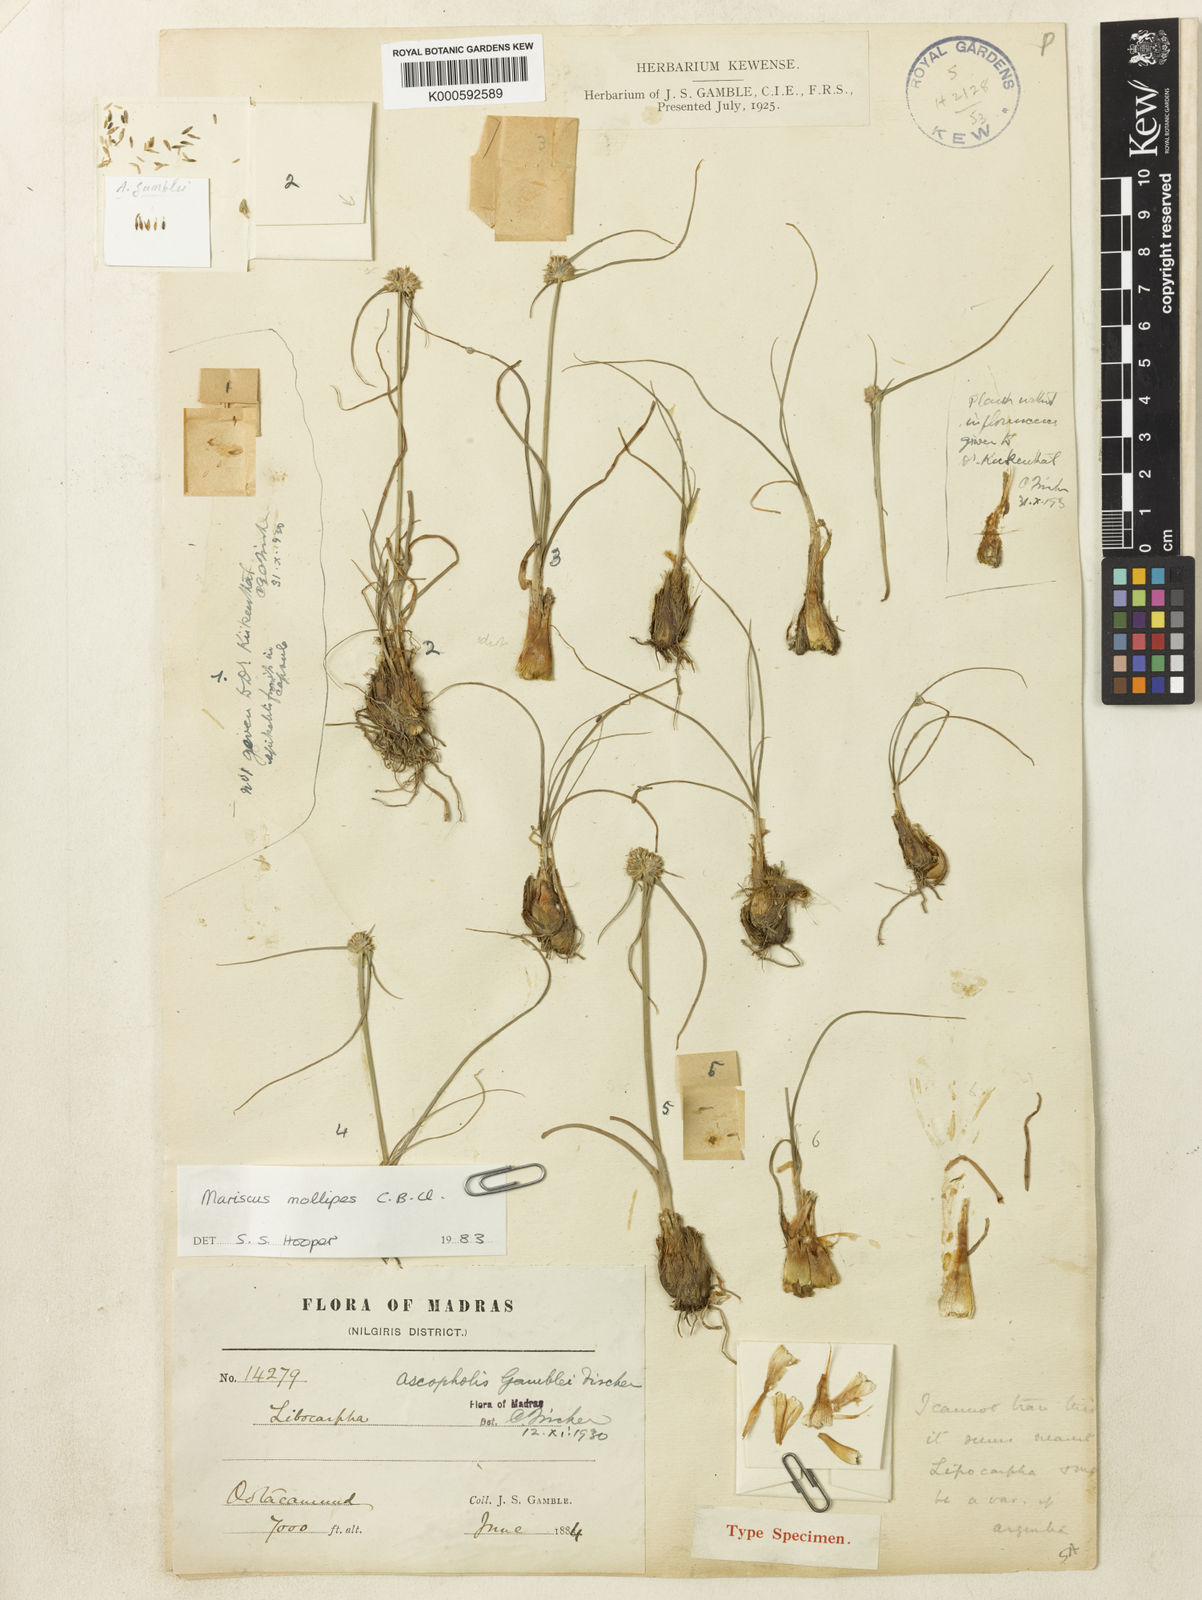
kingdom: Plantae
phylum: Tracheophyta
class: Liliopsida
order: Poales
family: Cyperaceae
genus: Cyperus
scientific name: Cyperus mollipes
